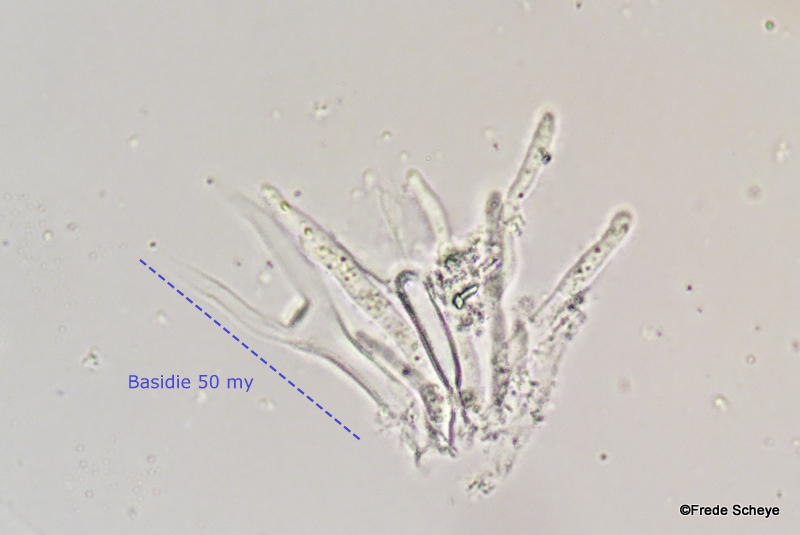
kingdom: Fungi
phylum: Basidiomycota
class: Dacrymycetes
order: Dacrymycetales
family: Dacrymycetaceae
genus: Dacrymyces
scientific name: Dacrymyces
